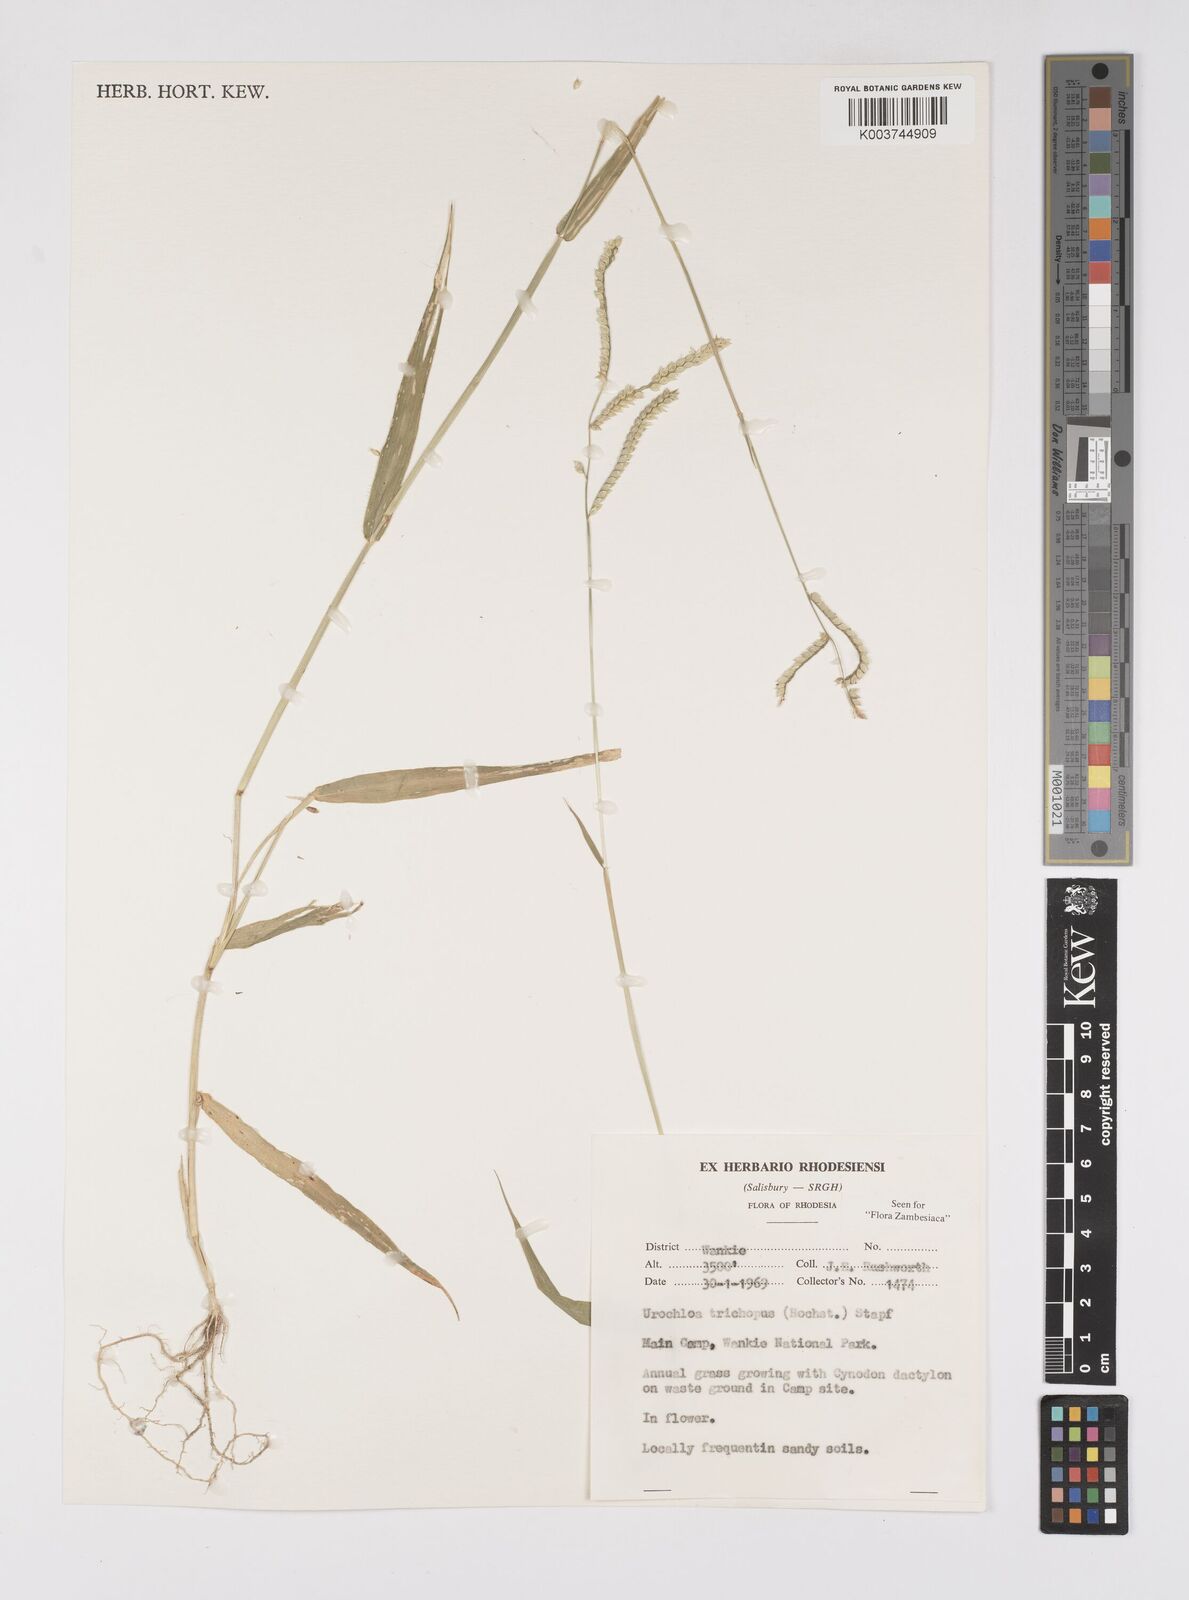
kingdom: Plantae
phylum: Tracheophyta
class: Liliopsida
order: Poales
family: Poaceae
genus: Urochloa
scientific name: Urochloa trichopus
